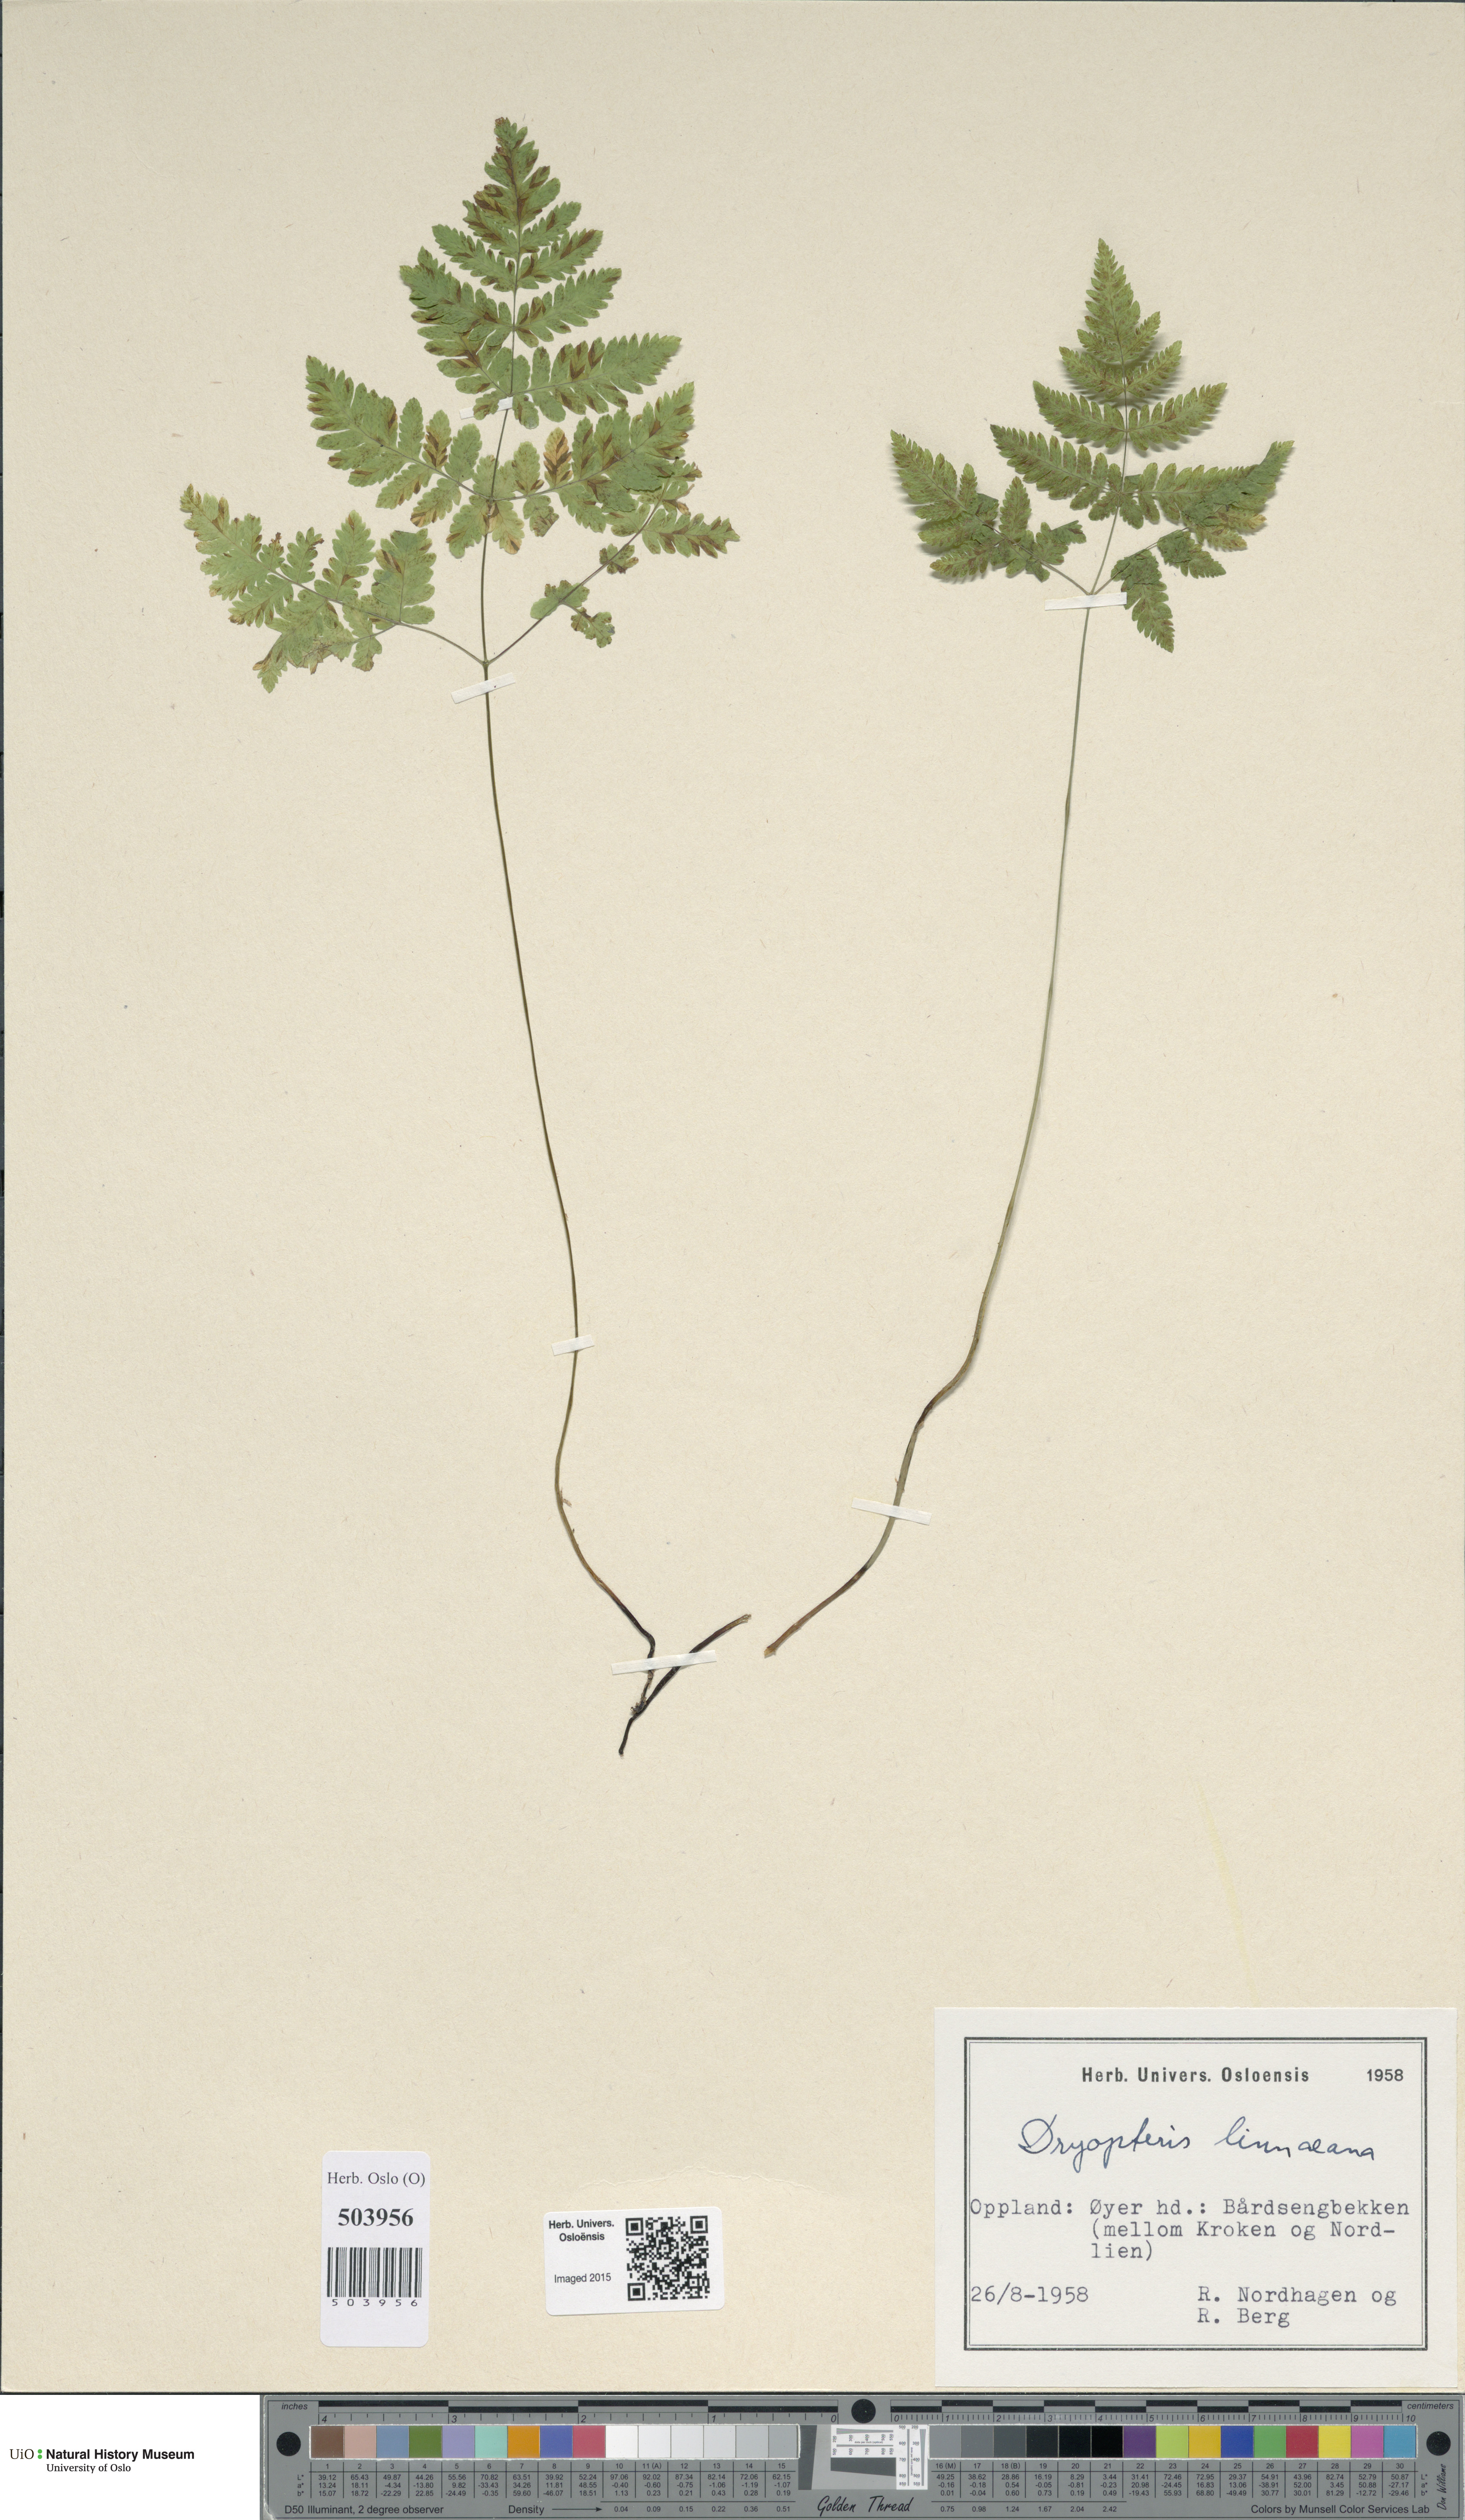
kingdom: Plantae
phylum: Tracheophyta
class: Polypodiopsida
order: Polypodiales
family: Cystopteridaceae
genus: Gymnocarpium
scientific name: Gymnocarpium dryopteris
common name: Oak fern
